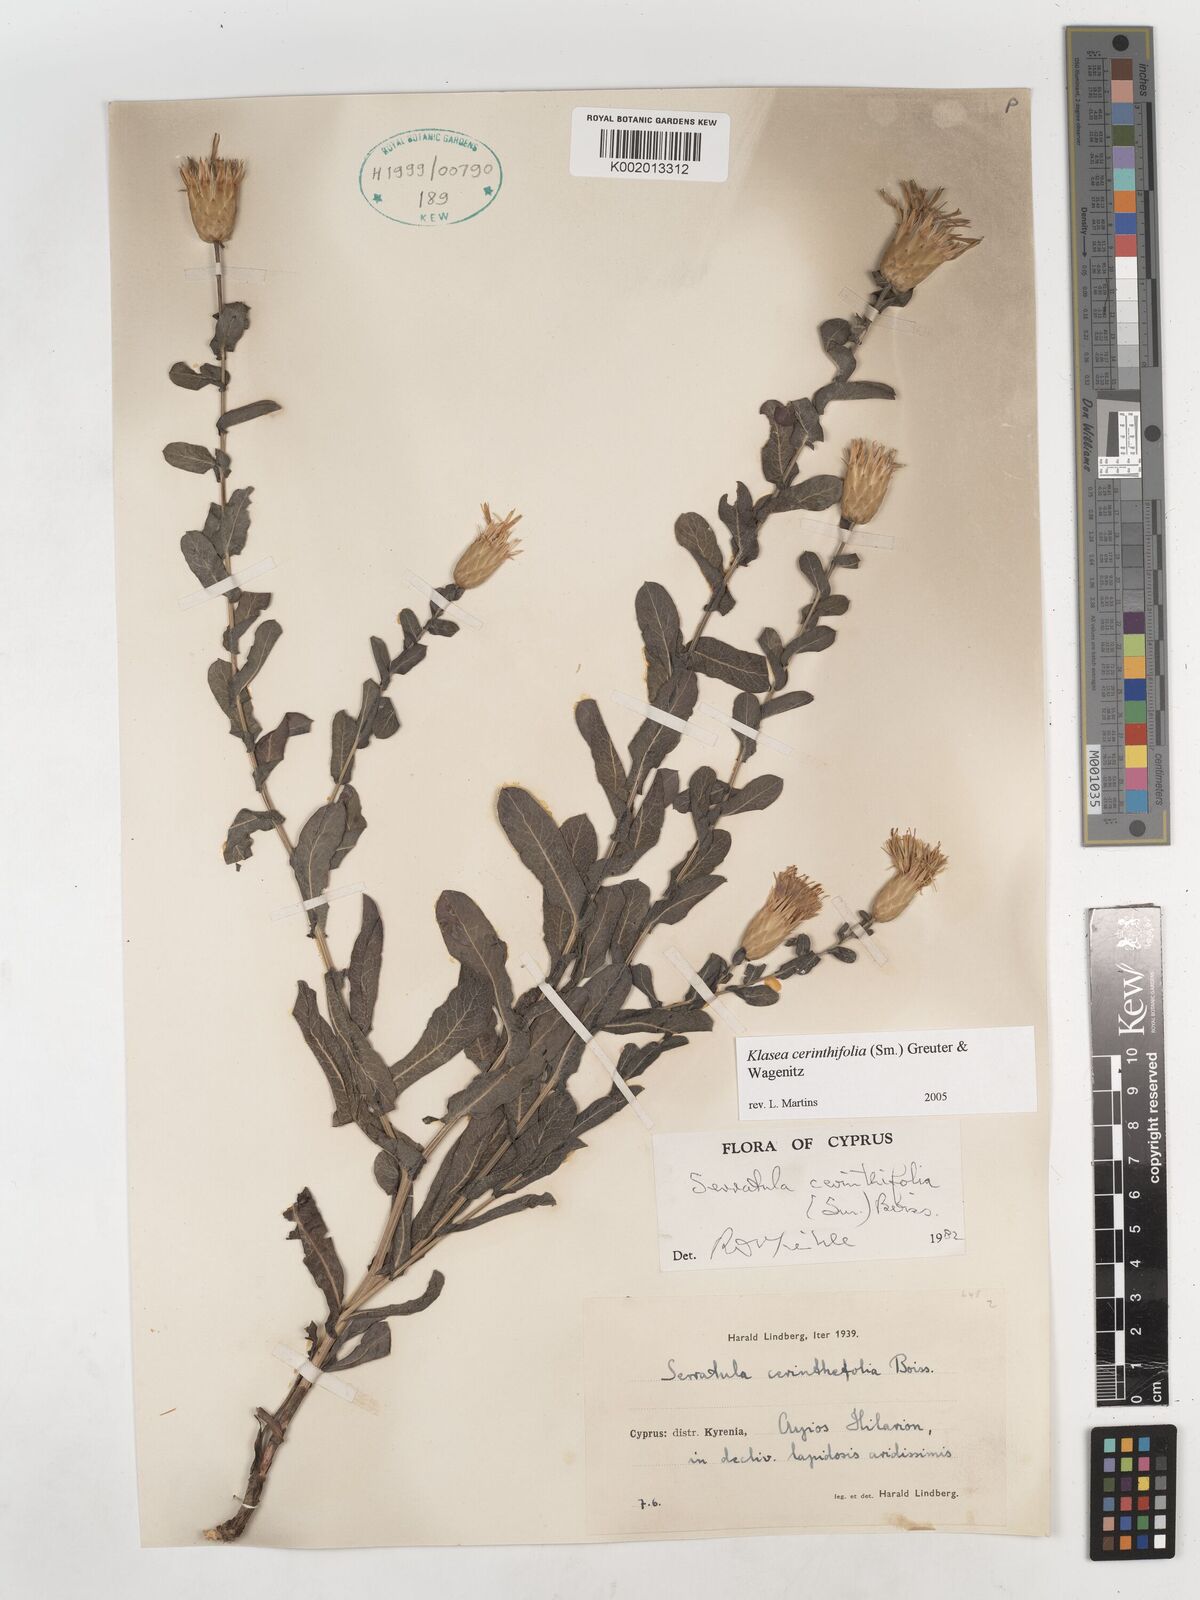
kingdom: Plantae
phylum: Tracheophyta
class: Magnoliopsida
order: Asterales
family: Asteraceae
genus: Klasea
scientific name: Klasea cerinthifolia
